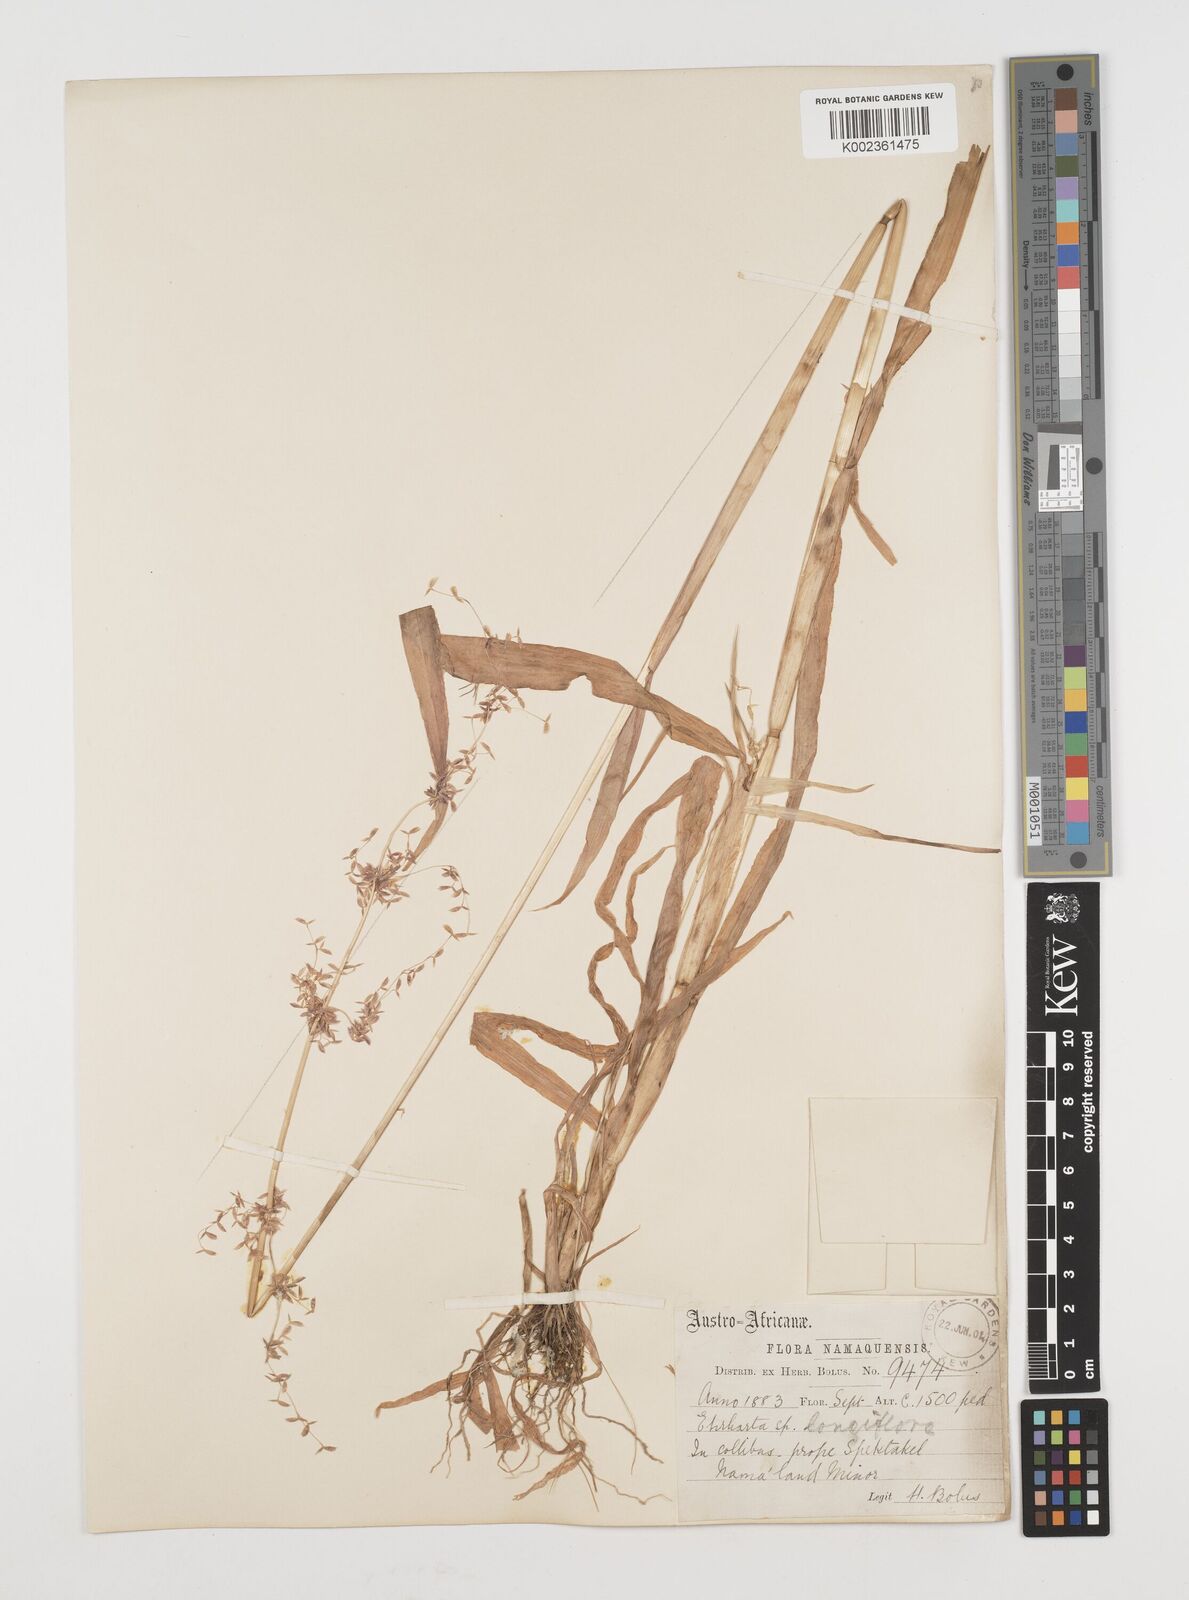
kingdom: Plantae
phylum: Tracheophyta
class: Liliopsida
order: Poales
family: Poaceae
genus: Ehrharta
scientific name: Ehrharta longiflora
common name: Longflowered veldtgrass
